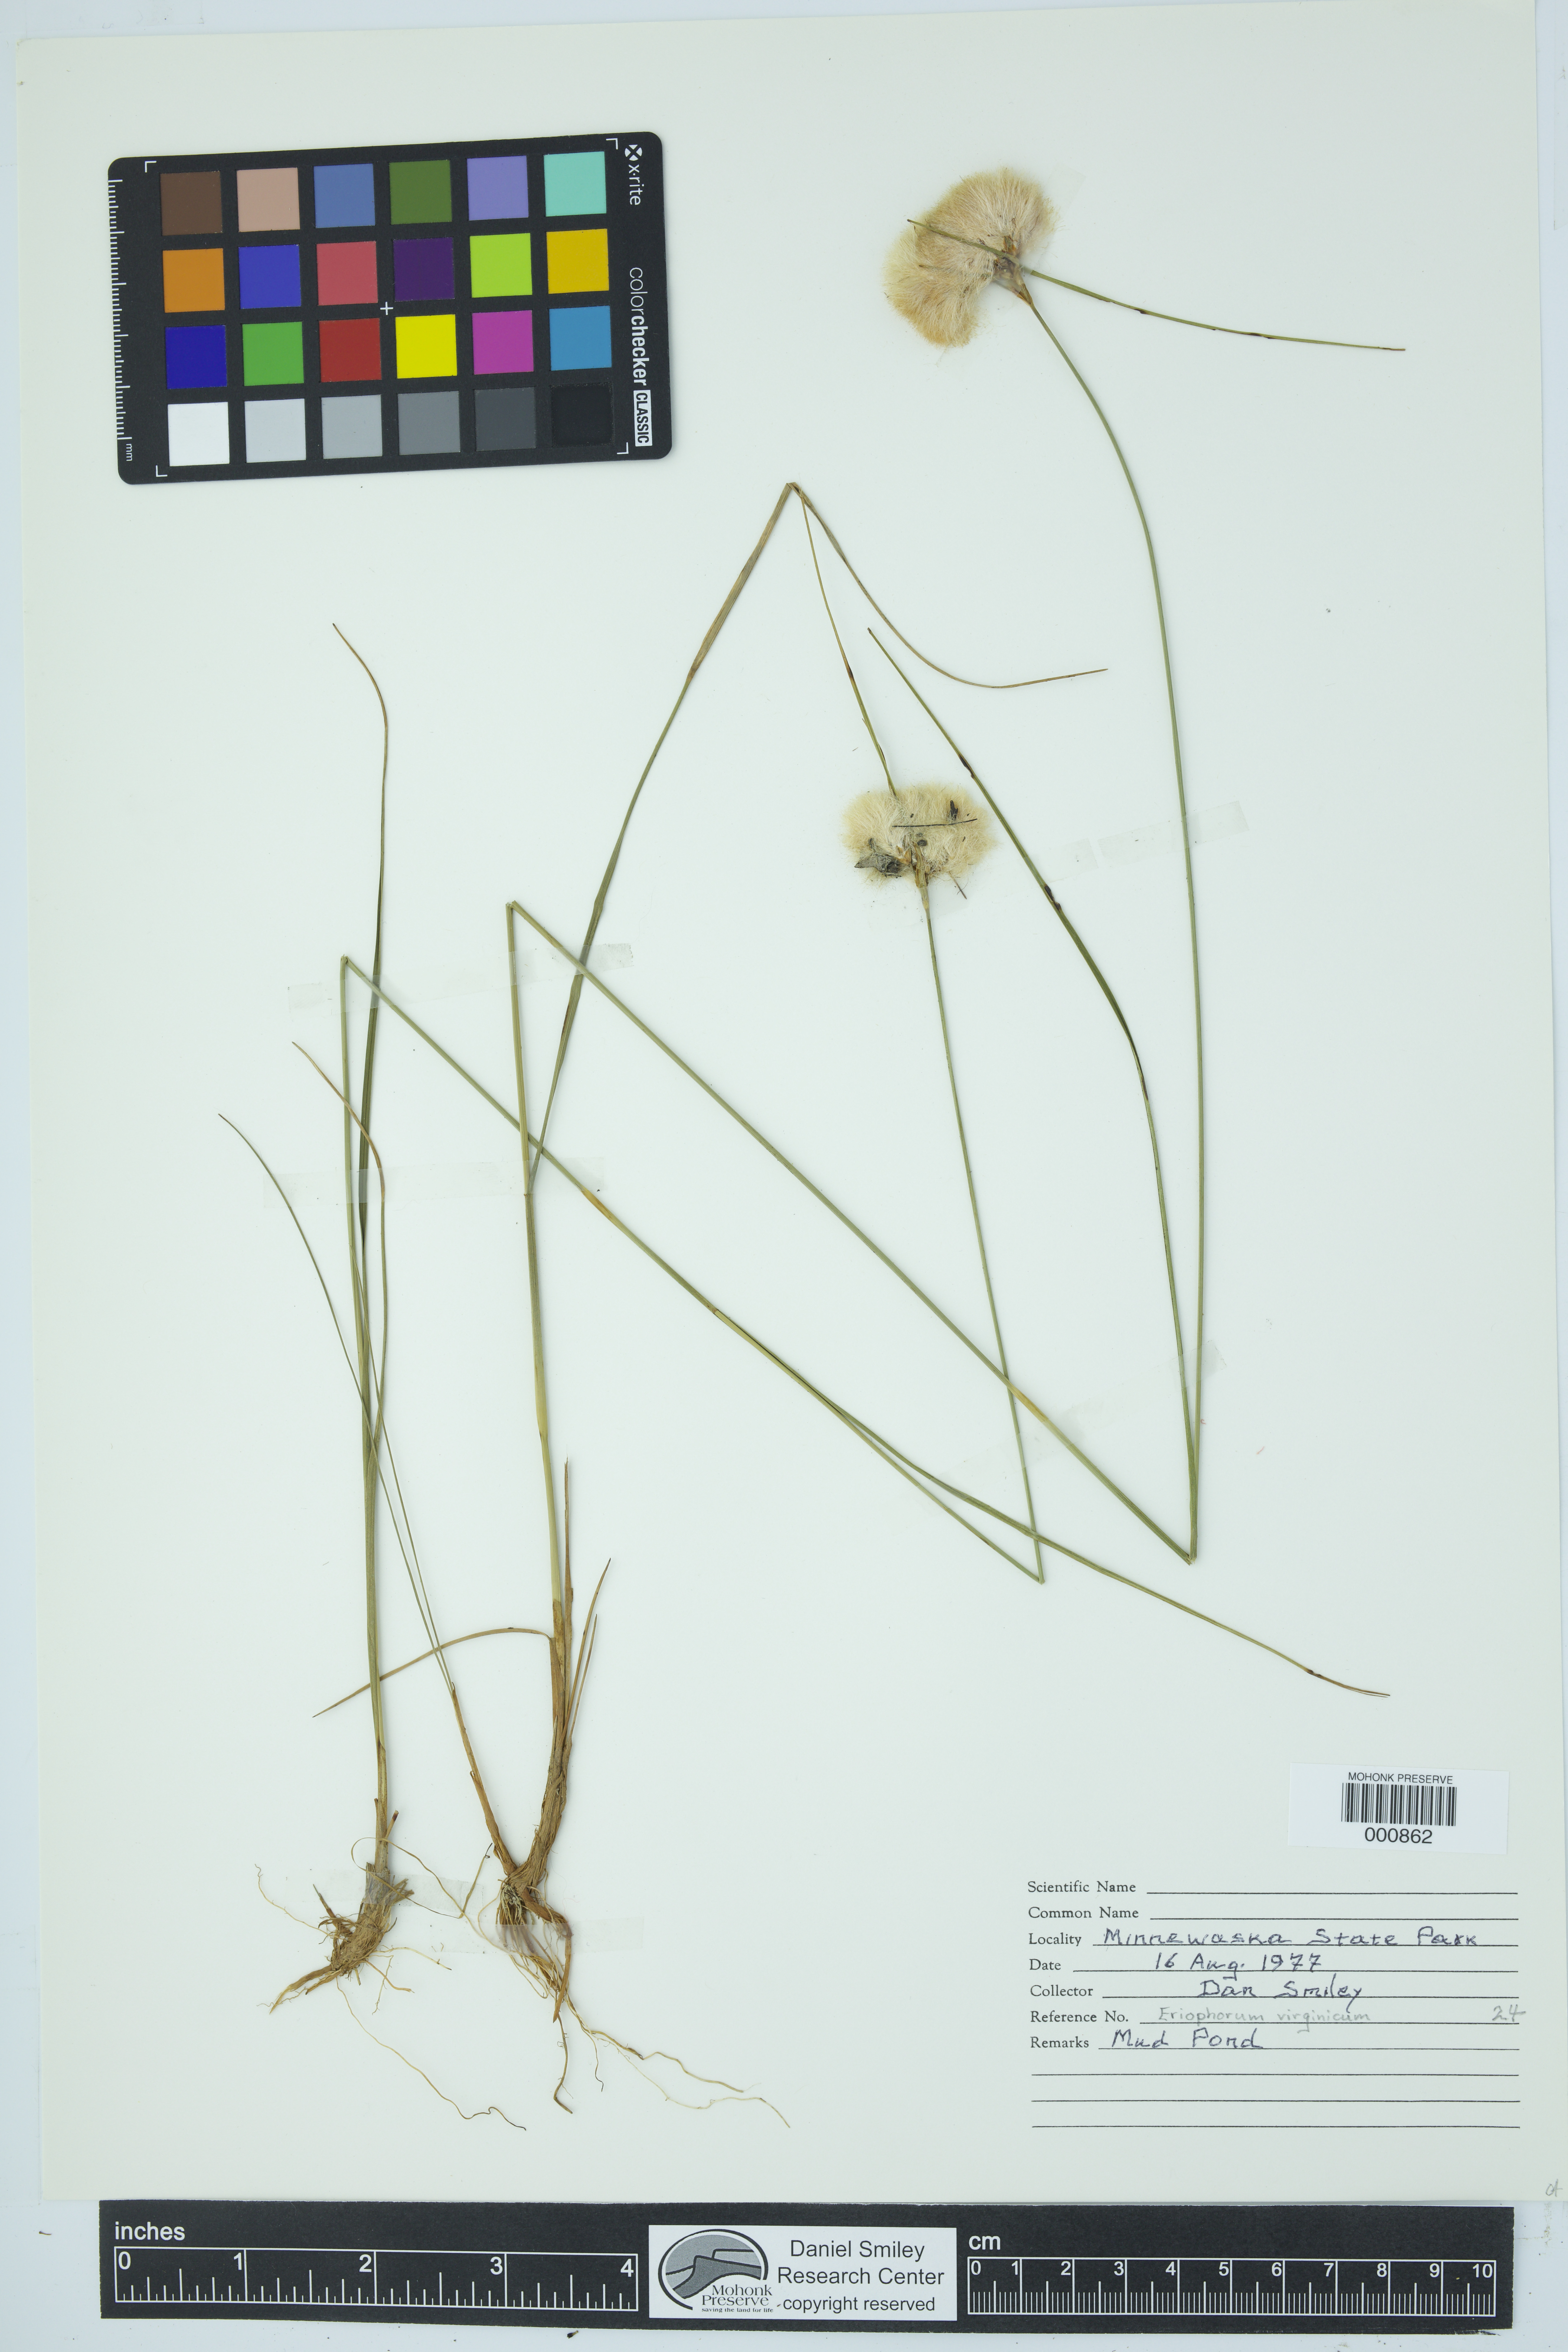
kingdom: Plantae
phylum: Tracheophyta
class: Liliopsida
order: Poales
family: Cyperaceae
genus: Eriophorum
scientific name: Eriophorum virginicum
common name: Tawny cottongrass
